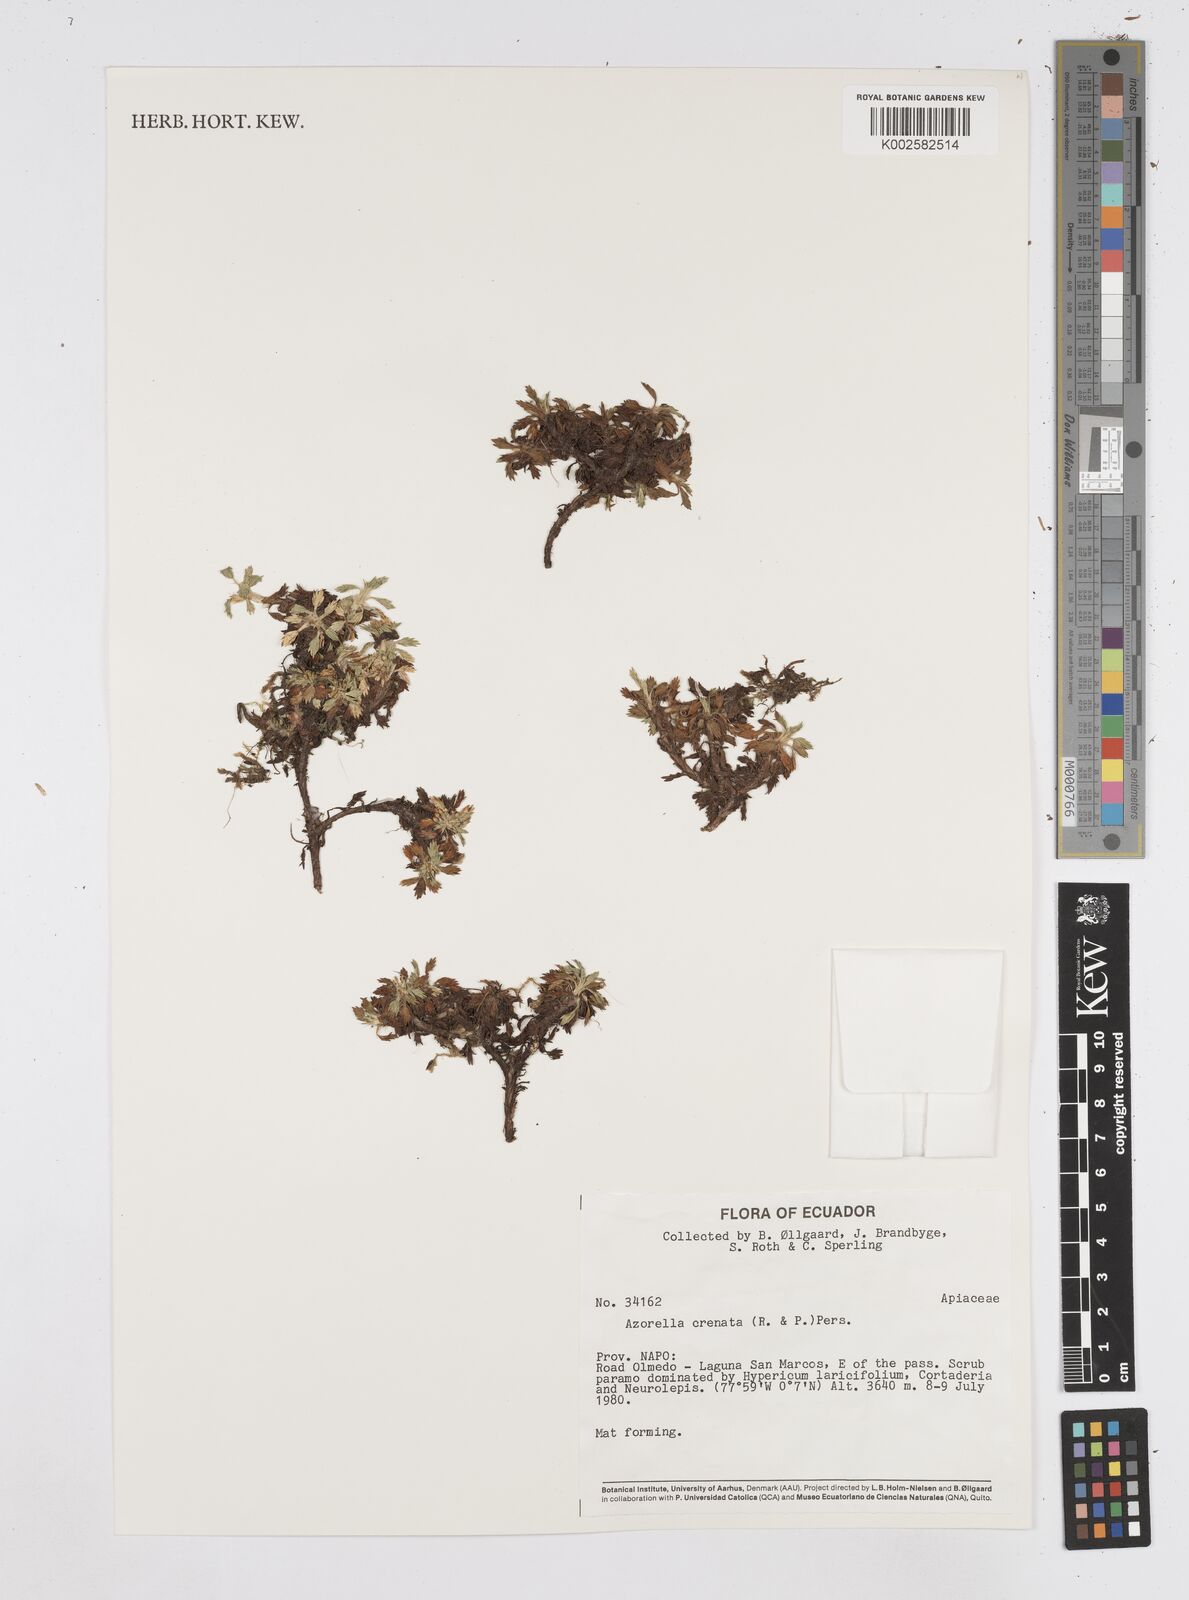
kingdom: Plantae
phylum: Tracheophyta
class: Magnoliopsida
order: Apiales
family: Apiaceae
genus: Azorella
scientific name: Azorella crenata
